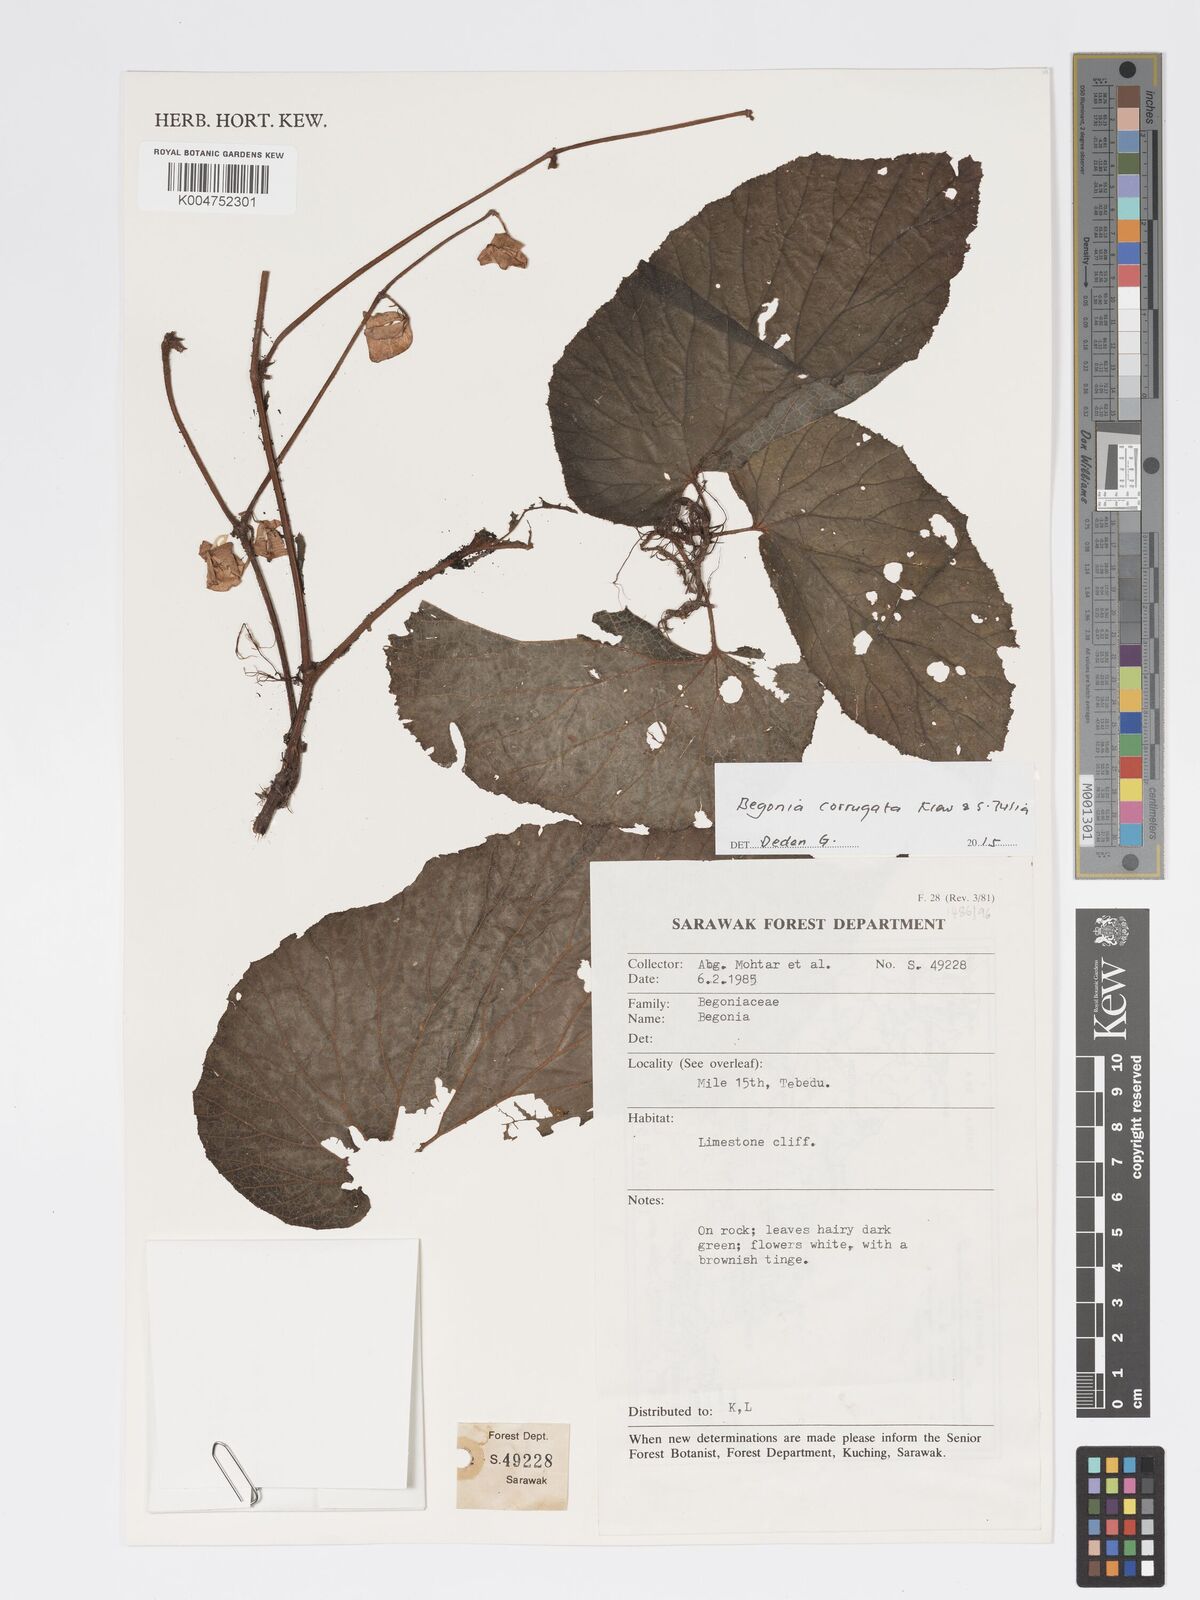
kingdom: Plantae
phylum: Tracheophyta
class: Magnoliopsida
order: Cucurbitales
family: Begoniaceae
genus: Begonia
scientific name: Begonia corrugata
